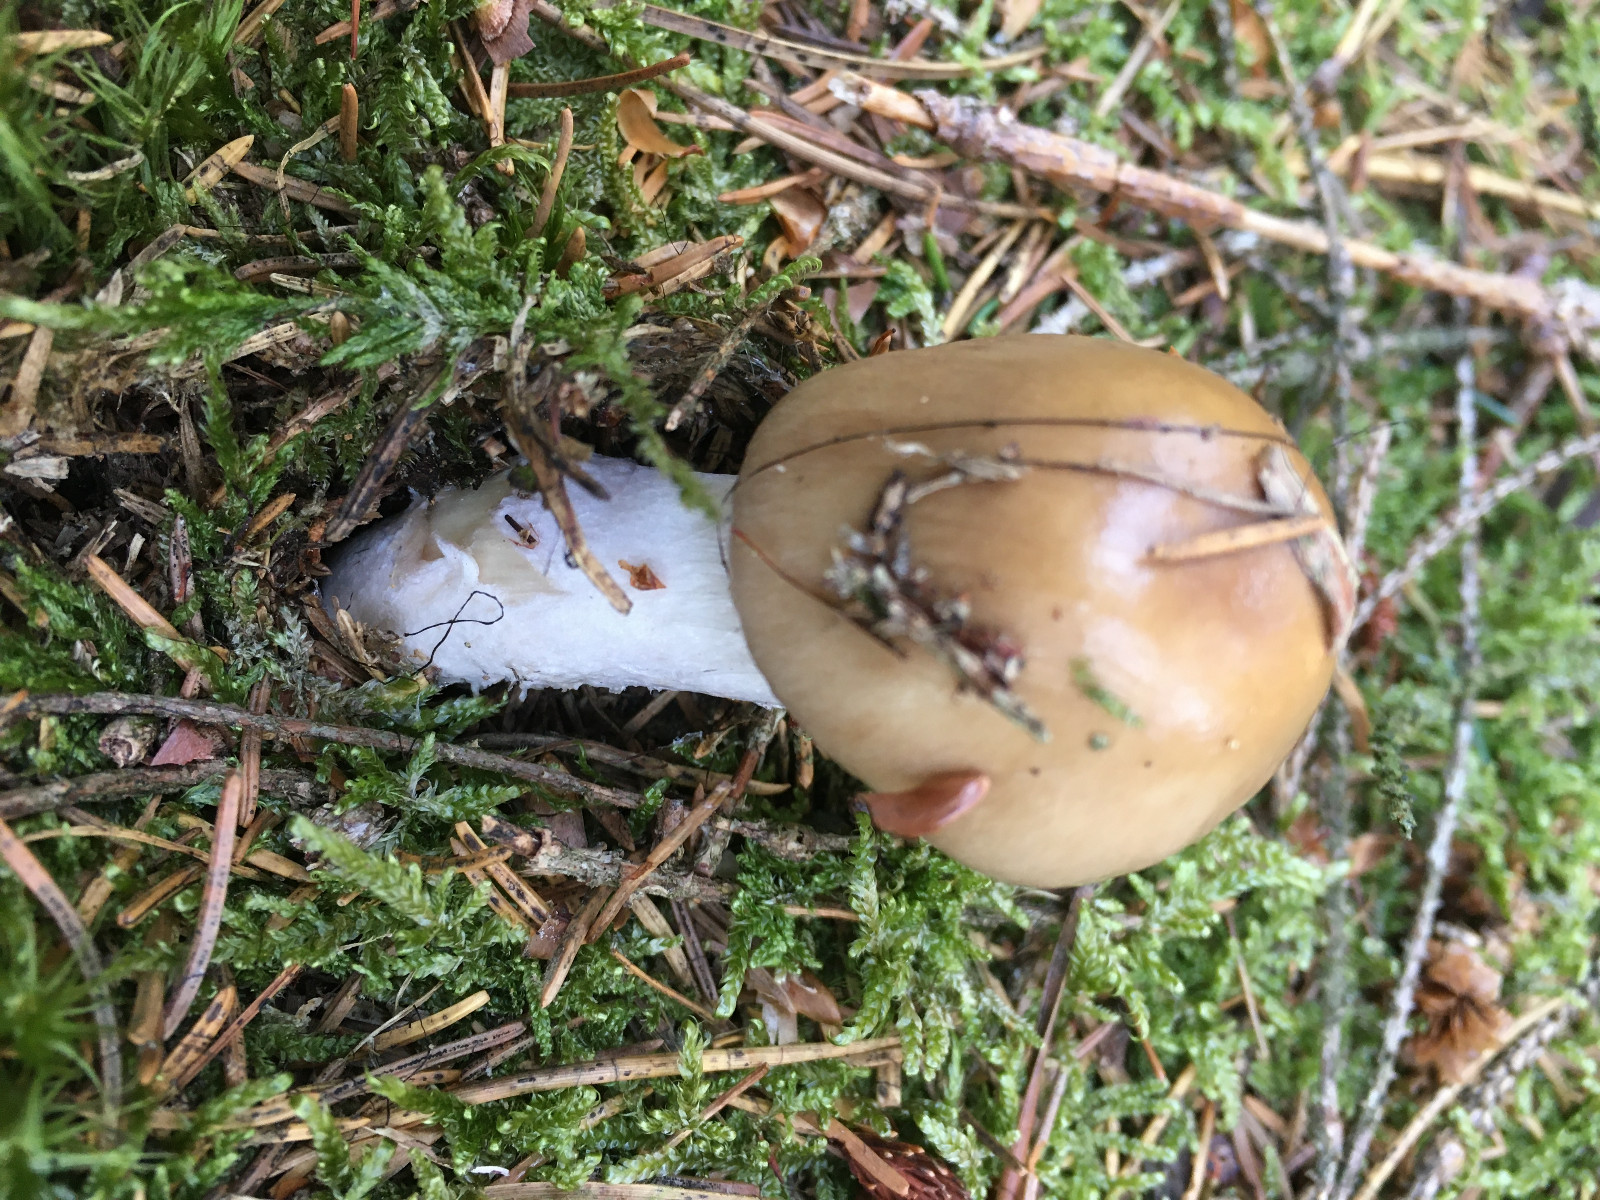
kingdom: Fungi
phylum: Basidiomycota
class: Agaricomycetes
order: Agaricales
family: Cortinariaceae
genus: Cortinarius
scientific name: Cortinarius stillatitius
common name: honningduftende slørhat
